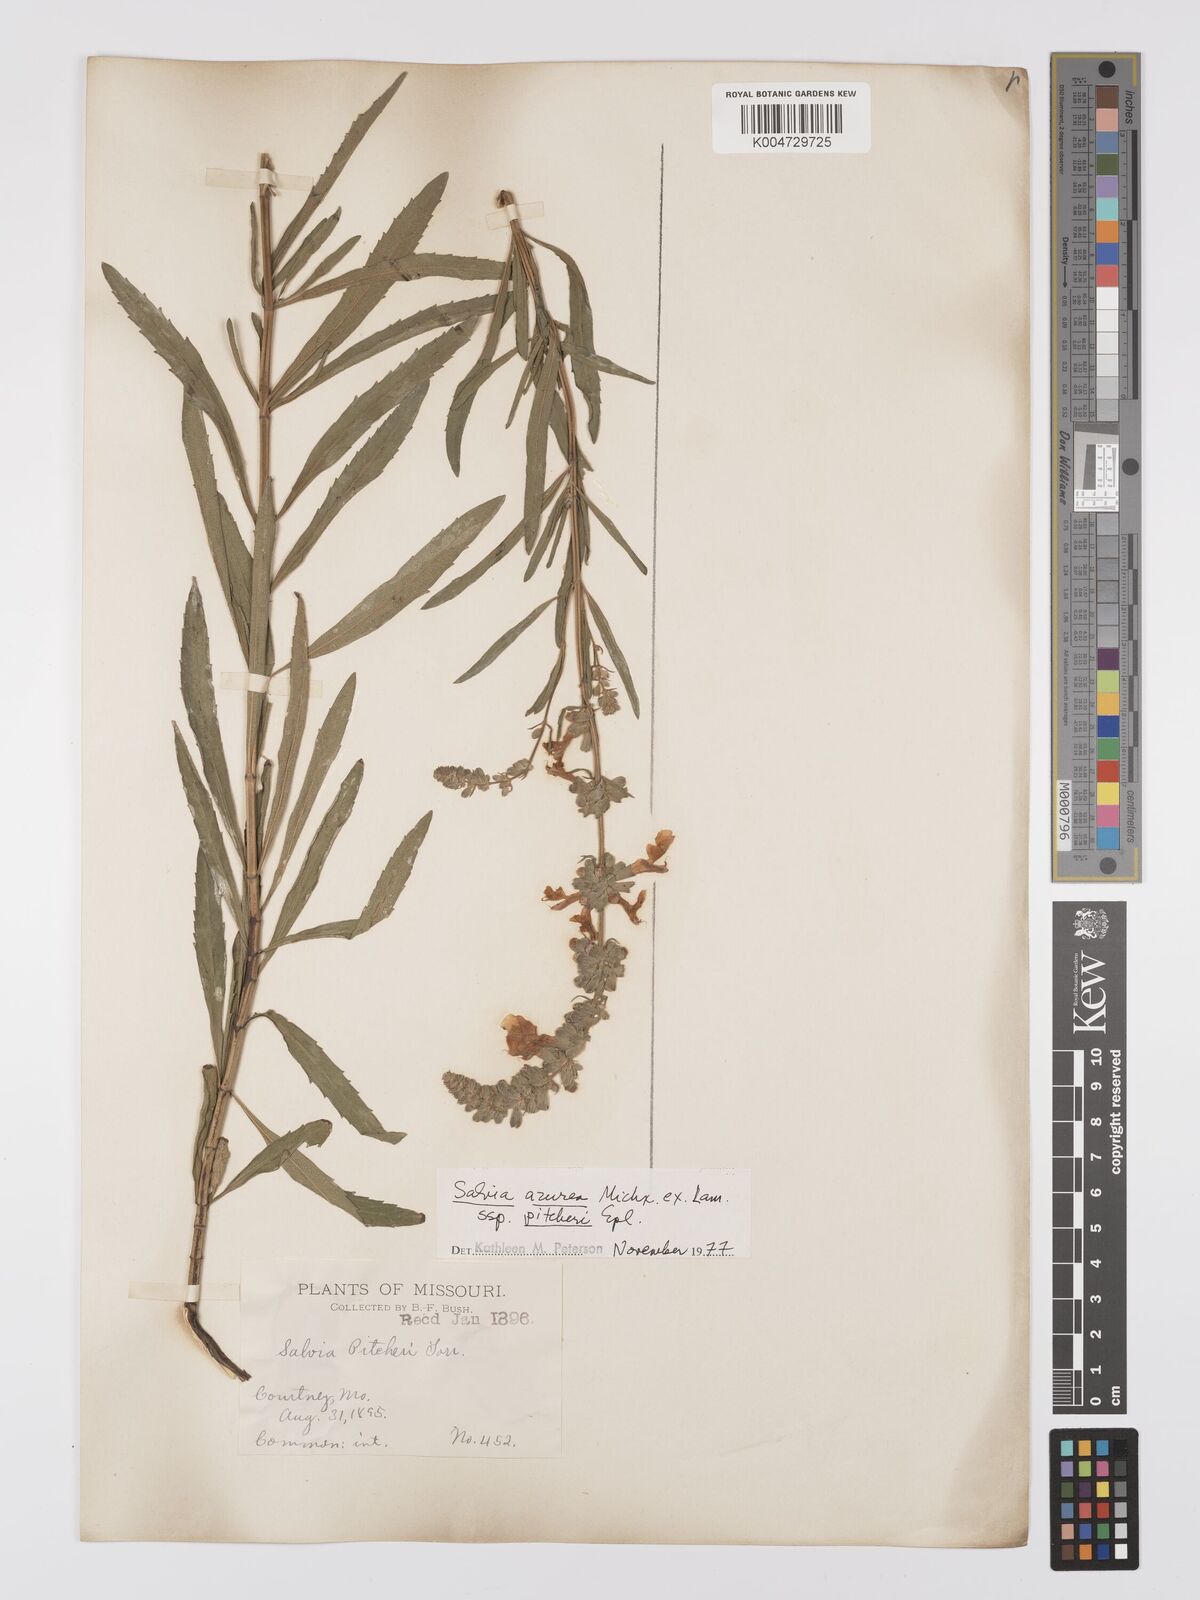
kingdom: Plantae
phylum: Tracheophyta
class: Magnoliopsida
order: Lamiales
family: Lamiaceae
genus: Salvia
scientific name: Salvia azurea
